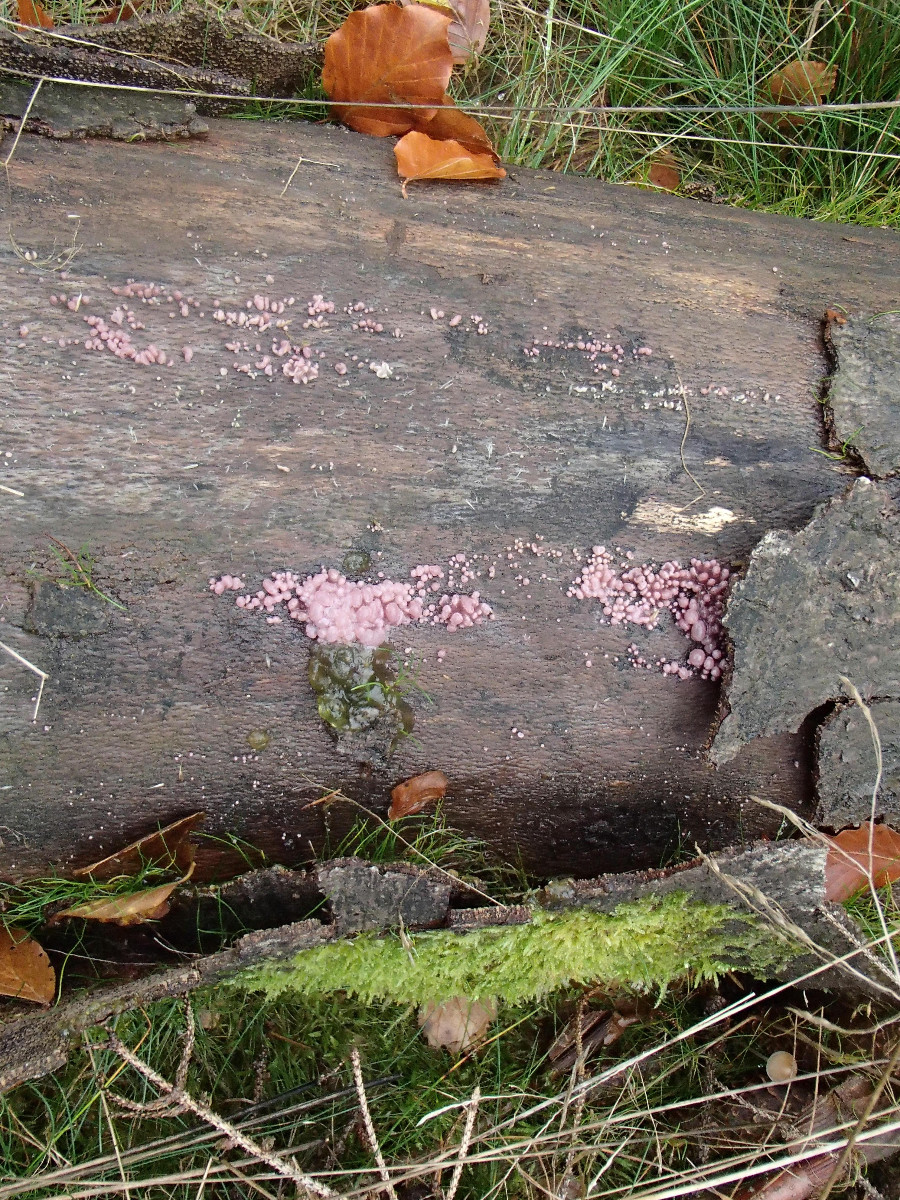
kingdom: Fungi
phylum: Ascomycota
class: Leotiomycetes
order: Helotiales
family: Gelatinodiscaceae
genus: Ascocoryne
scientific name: Ascocoryne sarcoides
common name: rødlilla sejskive
